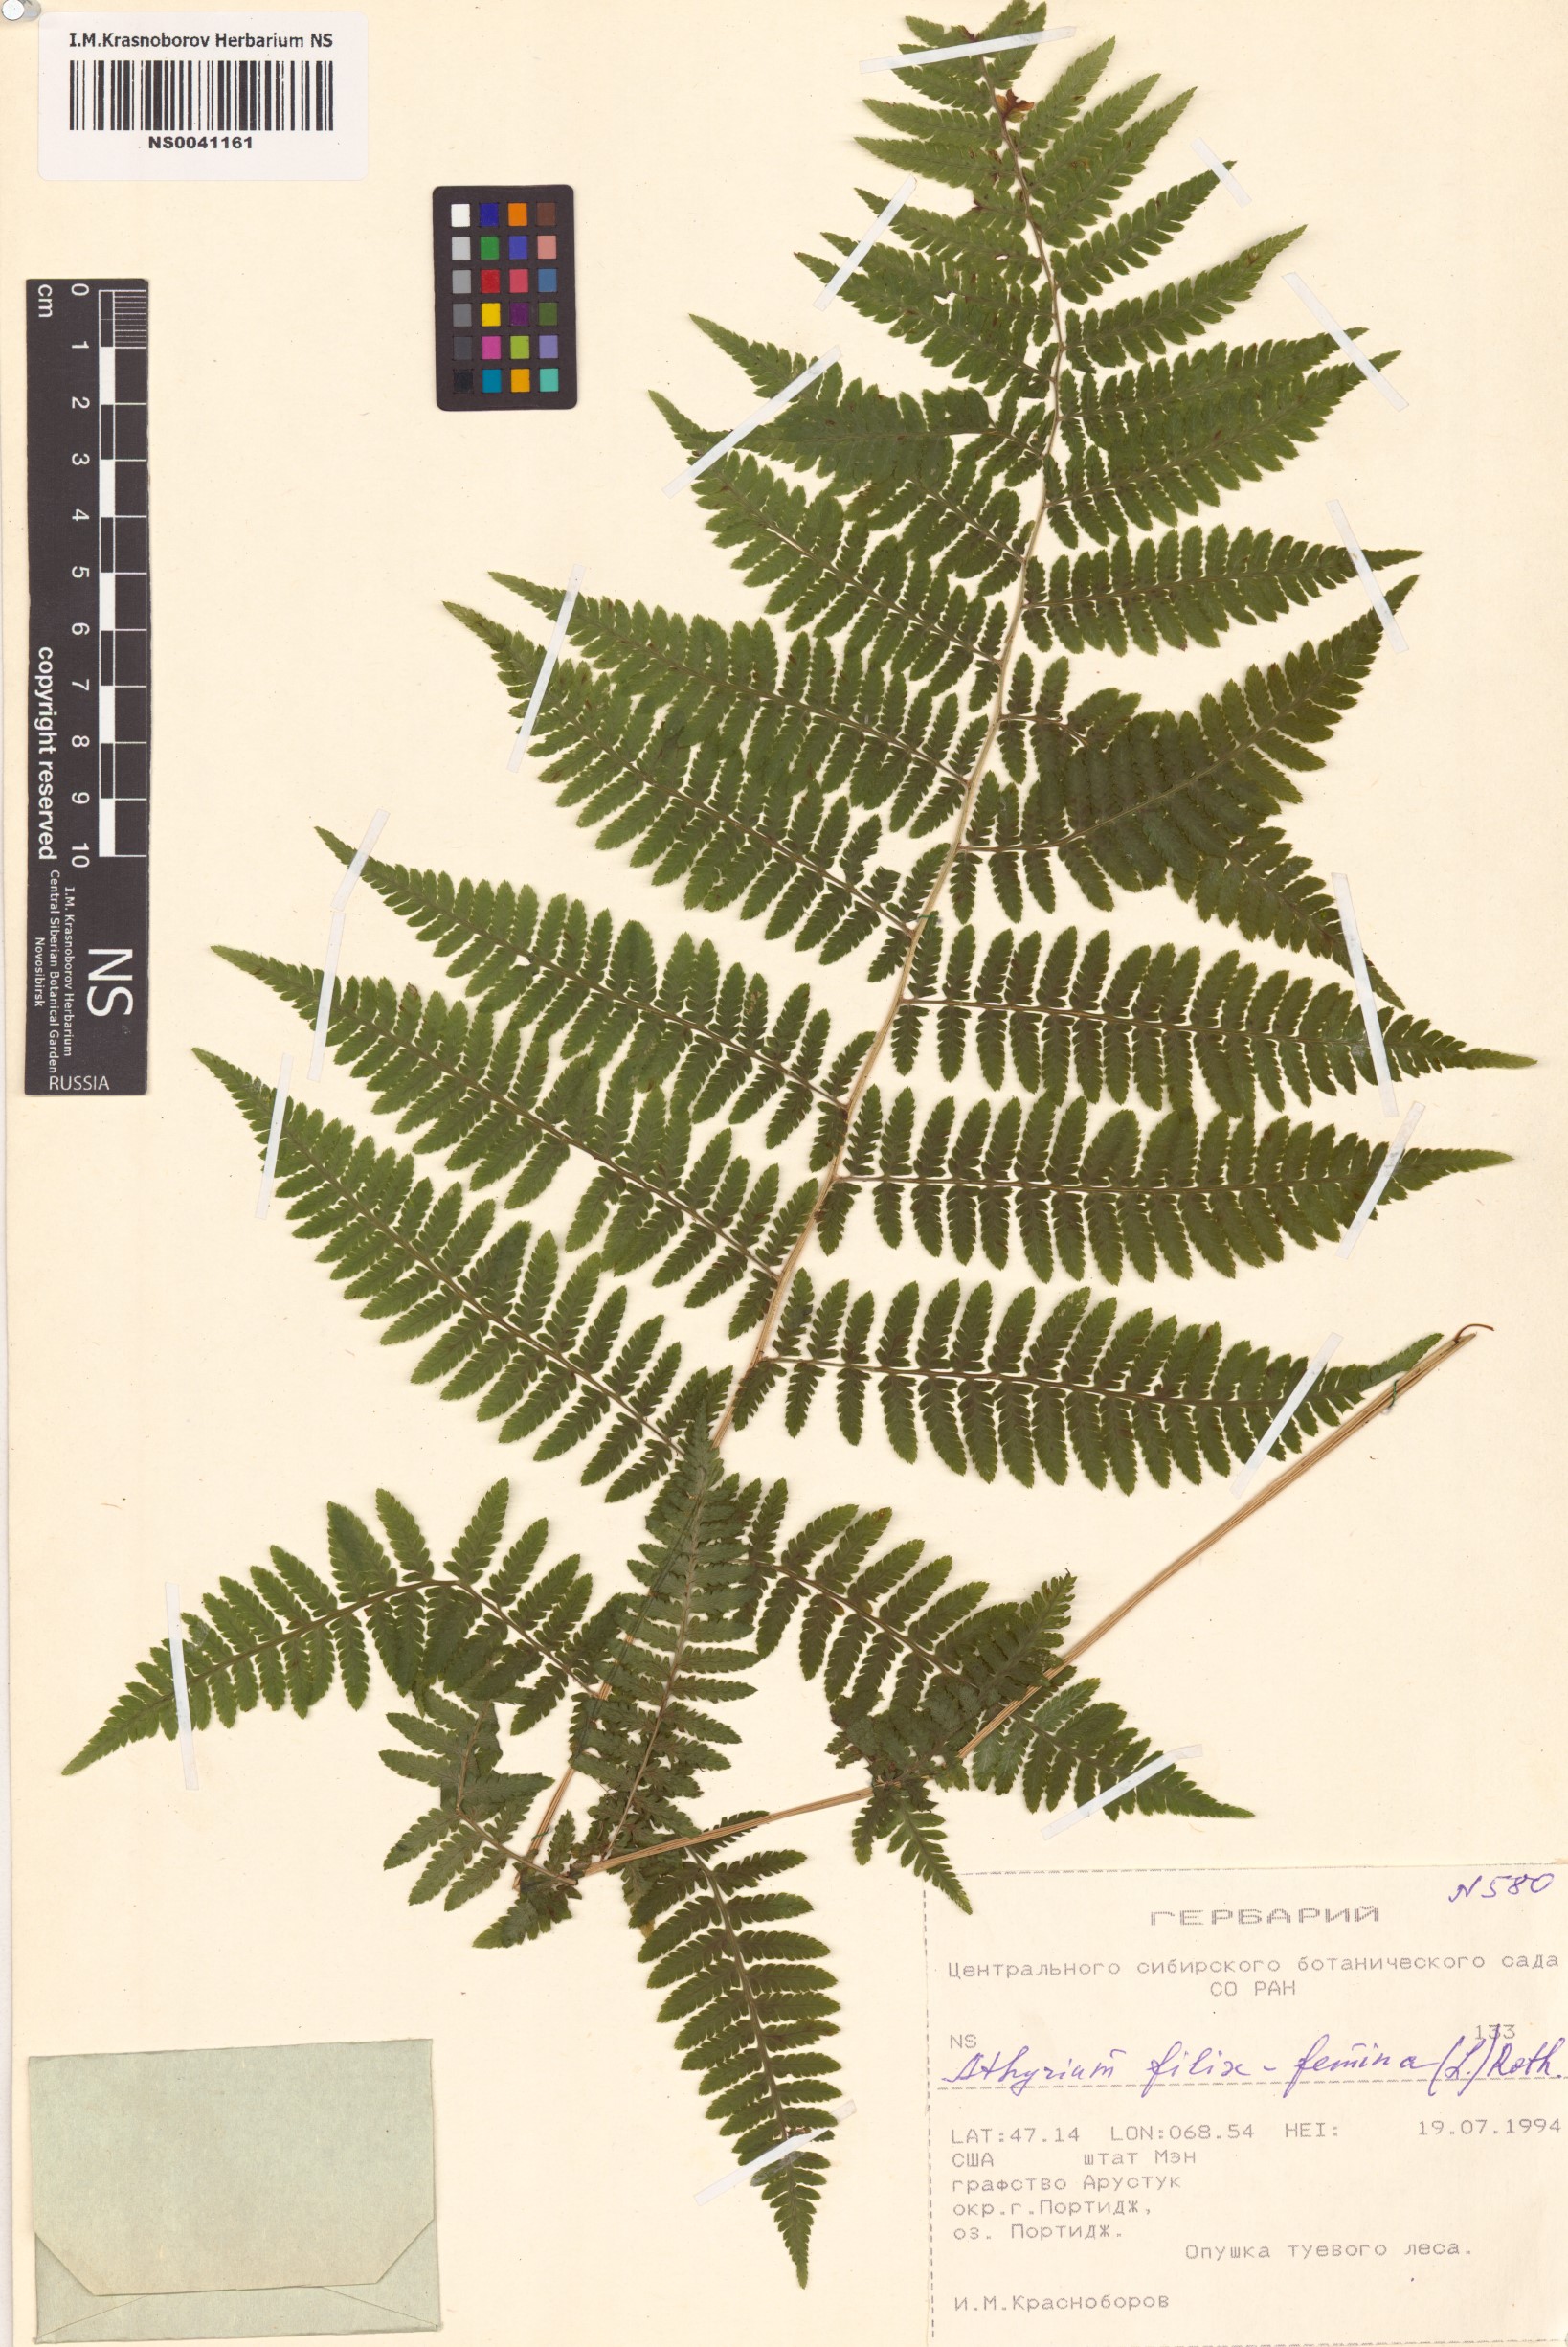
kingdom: Plantae
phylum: Tracheophyta
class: Polypodiopsida
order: Polypodiales
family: Athyriaceae
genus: Athyrium
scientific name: Athyrium filix-femina
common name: Lady fern
